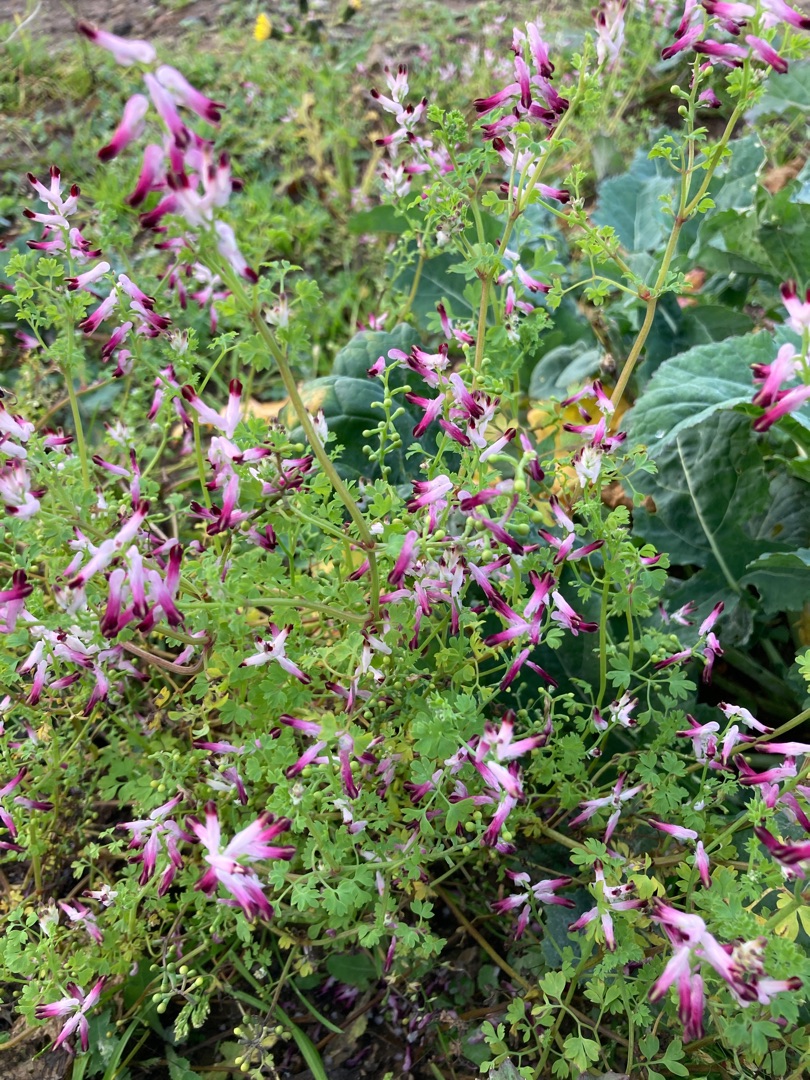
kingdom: Plantae
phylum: Tracheophyta
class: Magnoliopsida
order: Ranunculales
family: Papaveraceae
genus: Fumaria
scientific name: Fumaria muralis
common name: Mur-jordrøg
